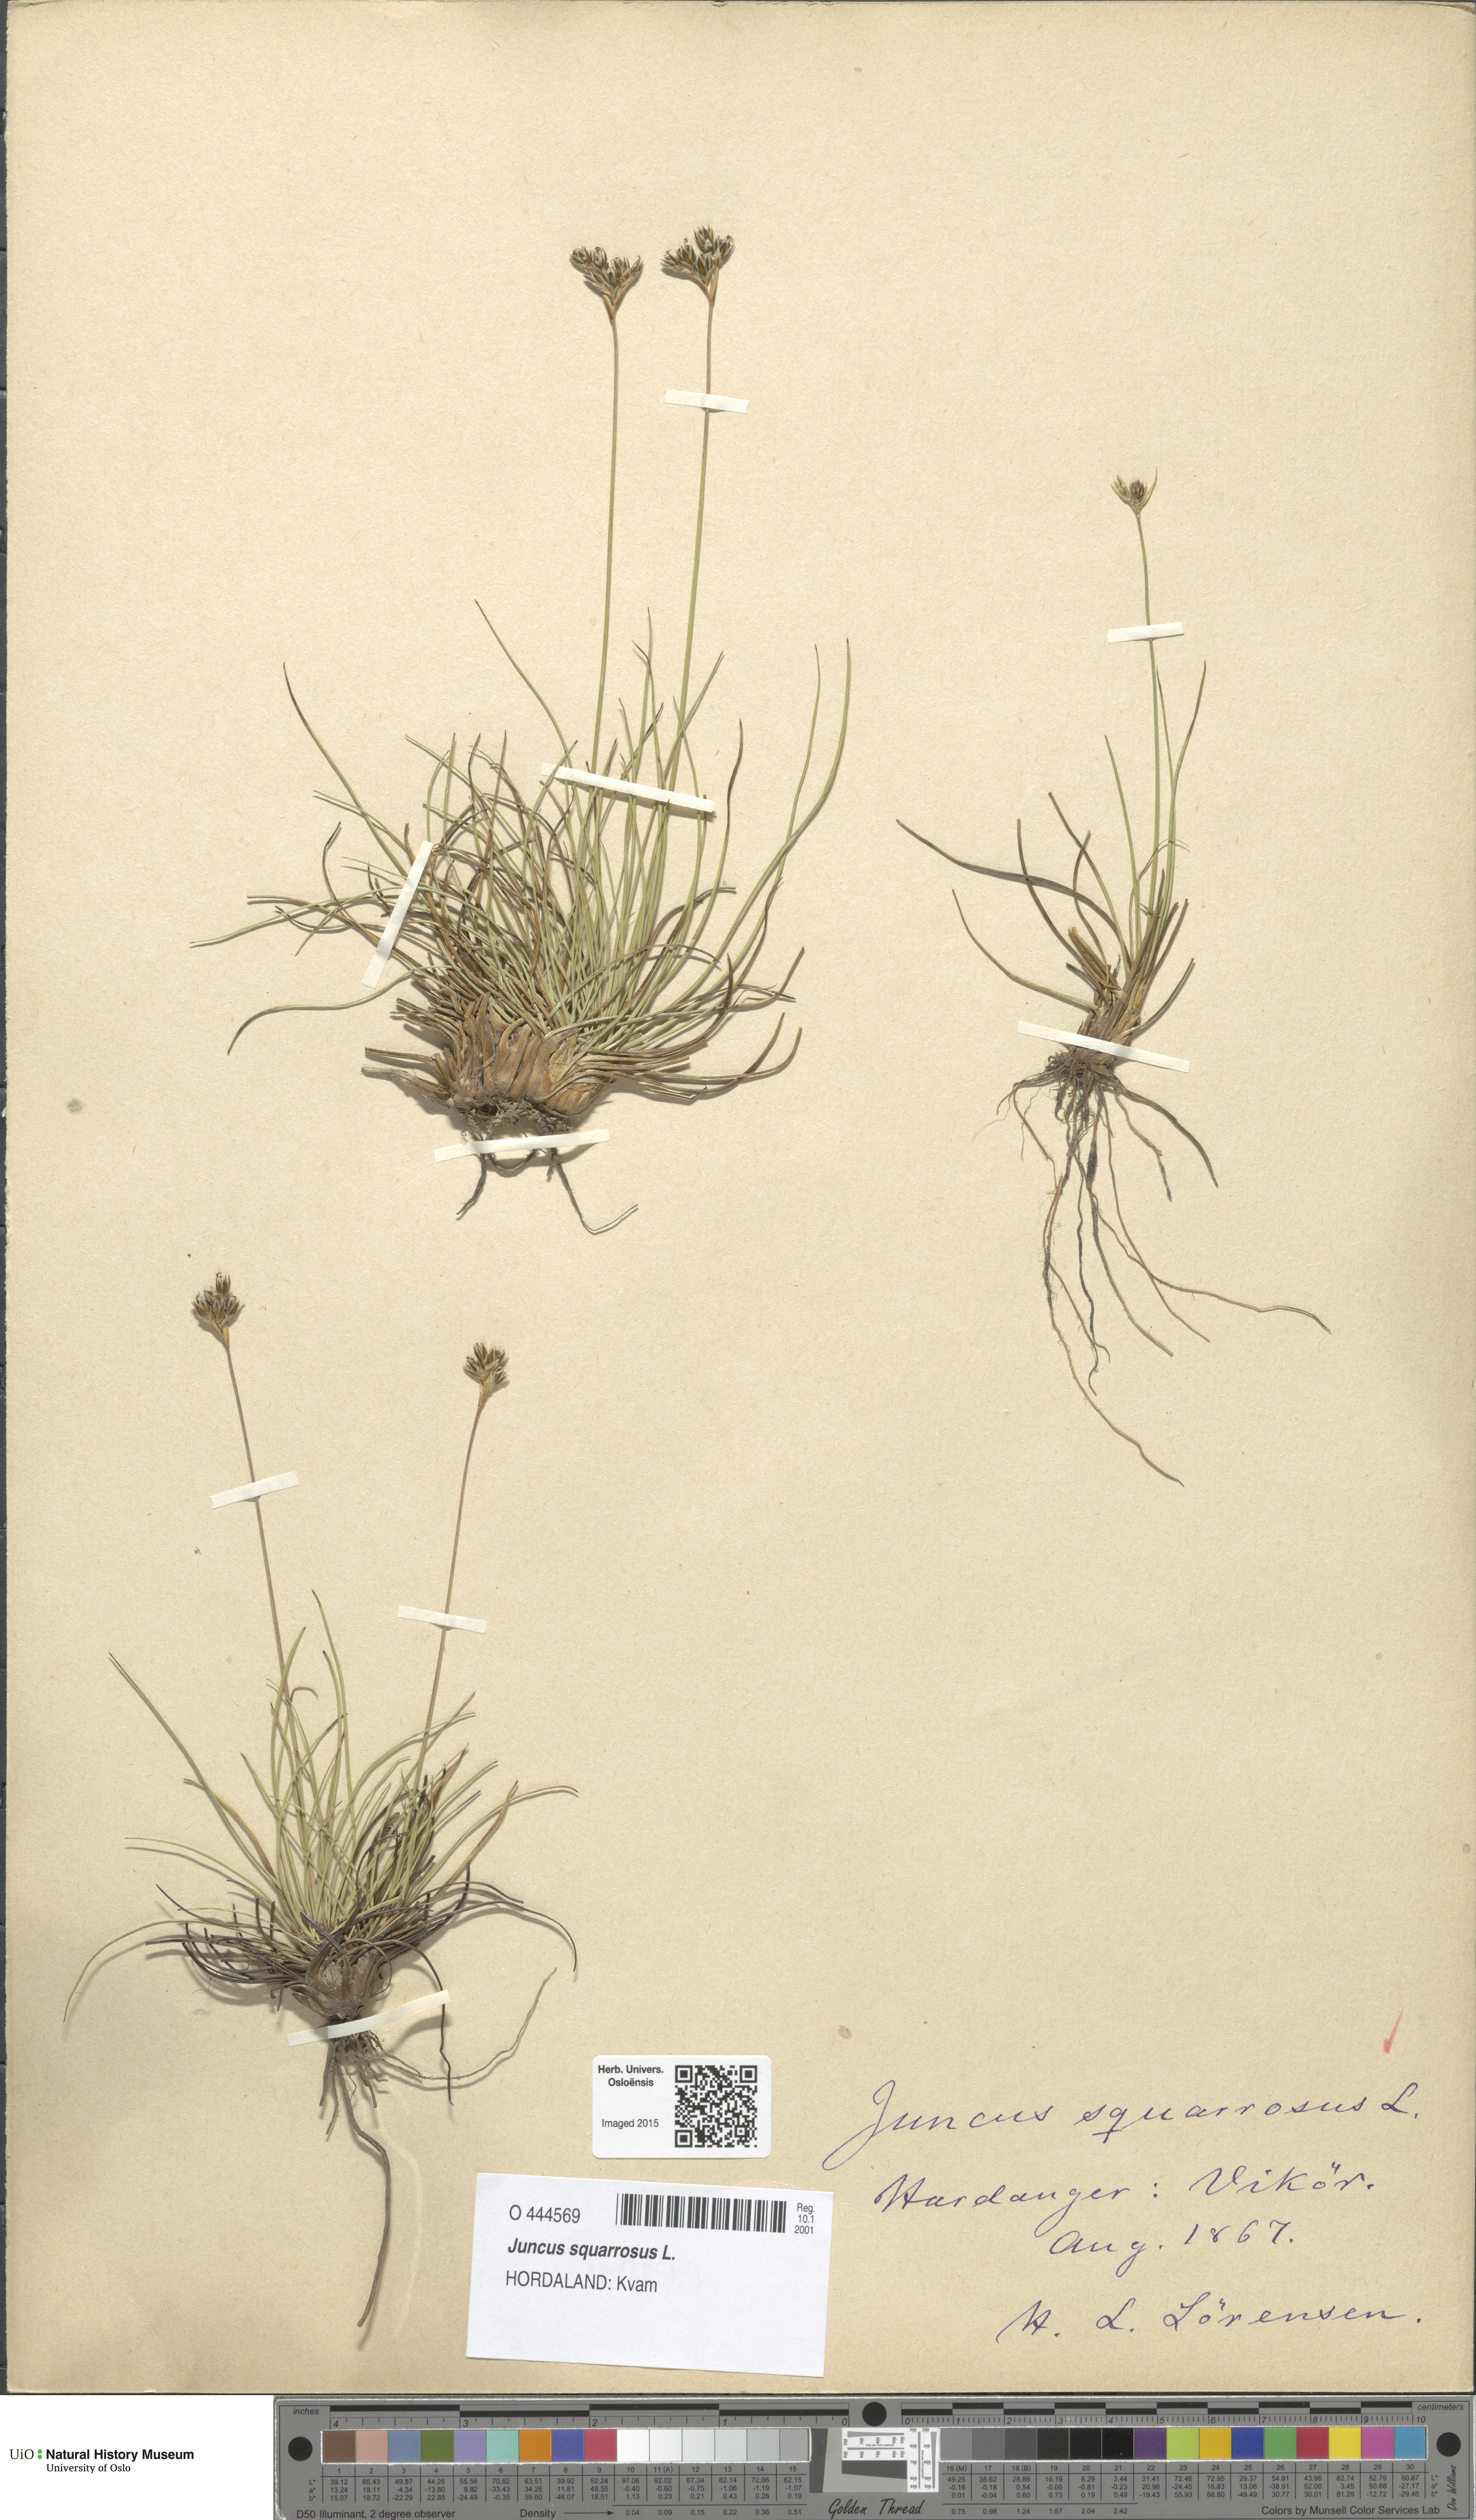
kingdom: Plantae
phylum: Tracheophyta
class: Liliopsida
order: Poales
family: Juncaceae
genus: Juncus
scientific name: Juncus squarrosus
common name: Heath rush
